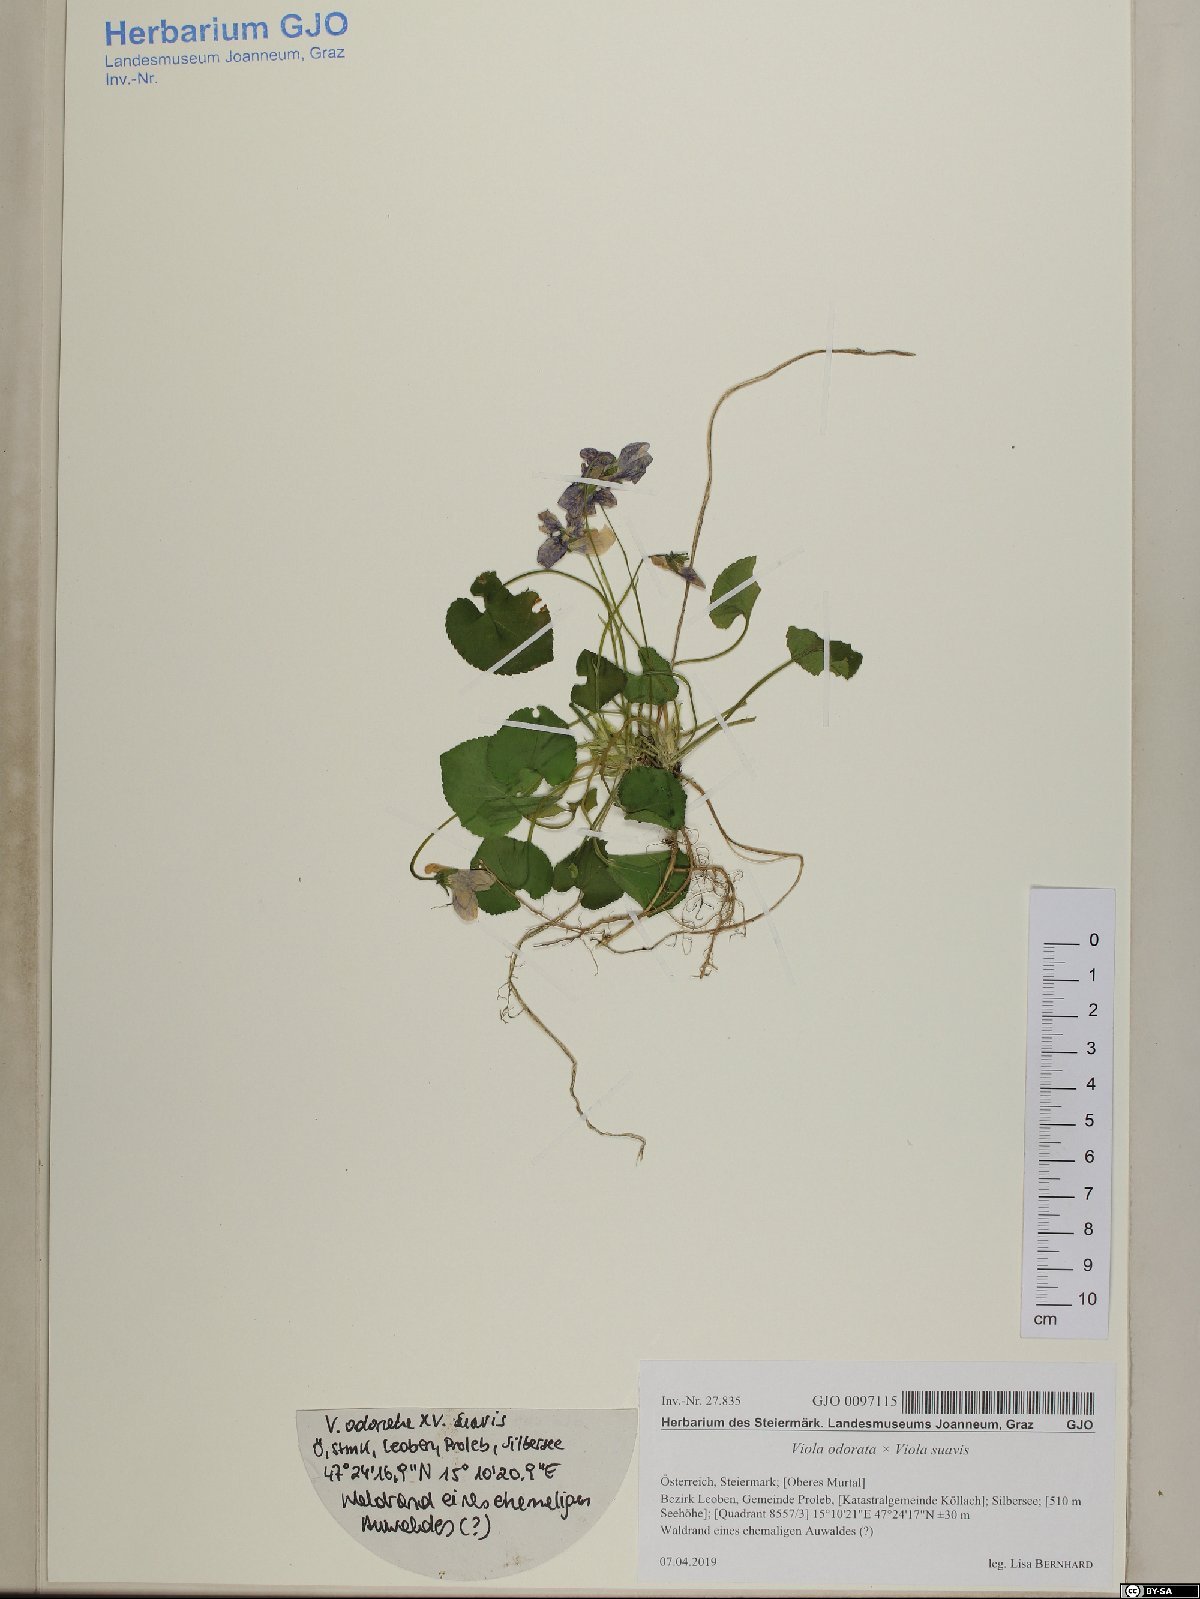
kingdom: Plantae
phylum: Tracheophyta
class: Magnoliopsida
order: Malpighiales
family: Violaceae
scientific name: Violaceae
